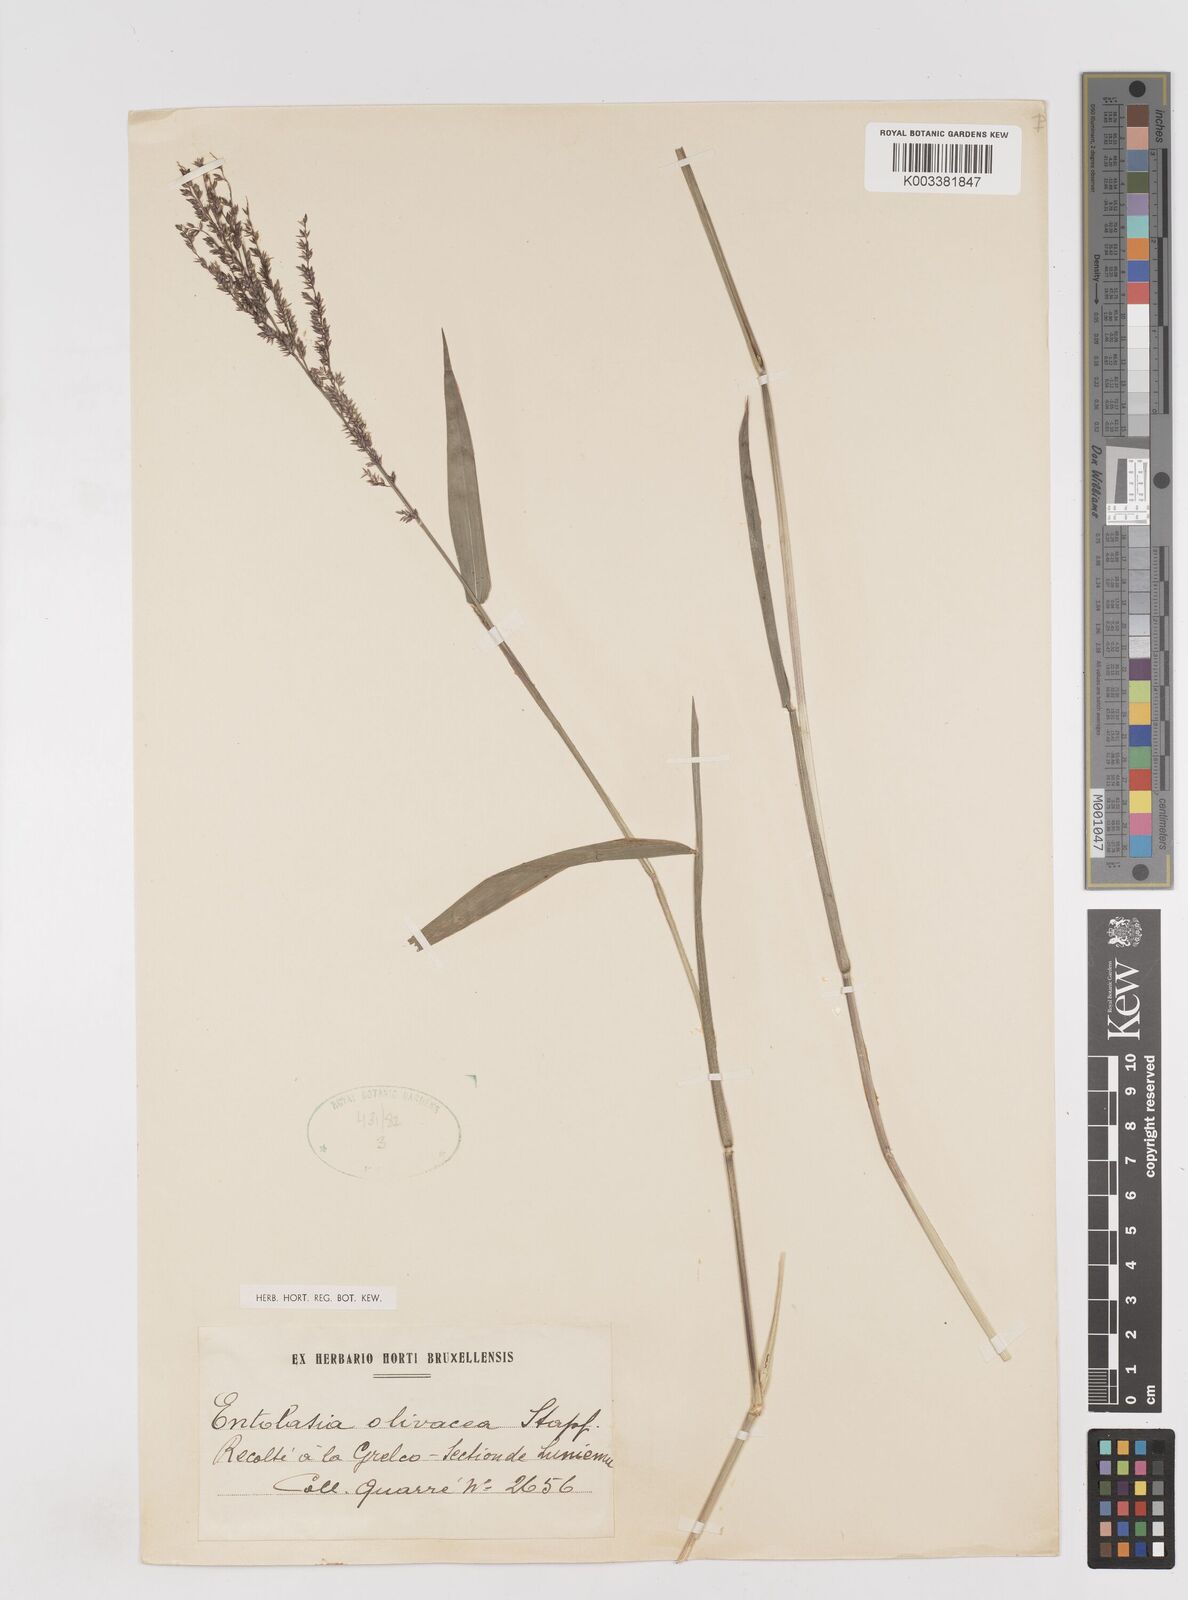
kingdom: Plantae
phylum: Tracheophyta
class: Liliopsida
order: Poales
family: Poaceae
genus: Entolasia
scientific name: Entolasia olivacea
